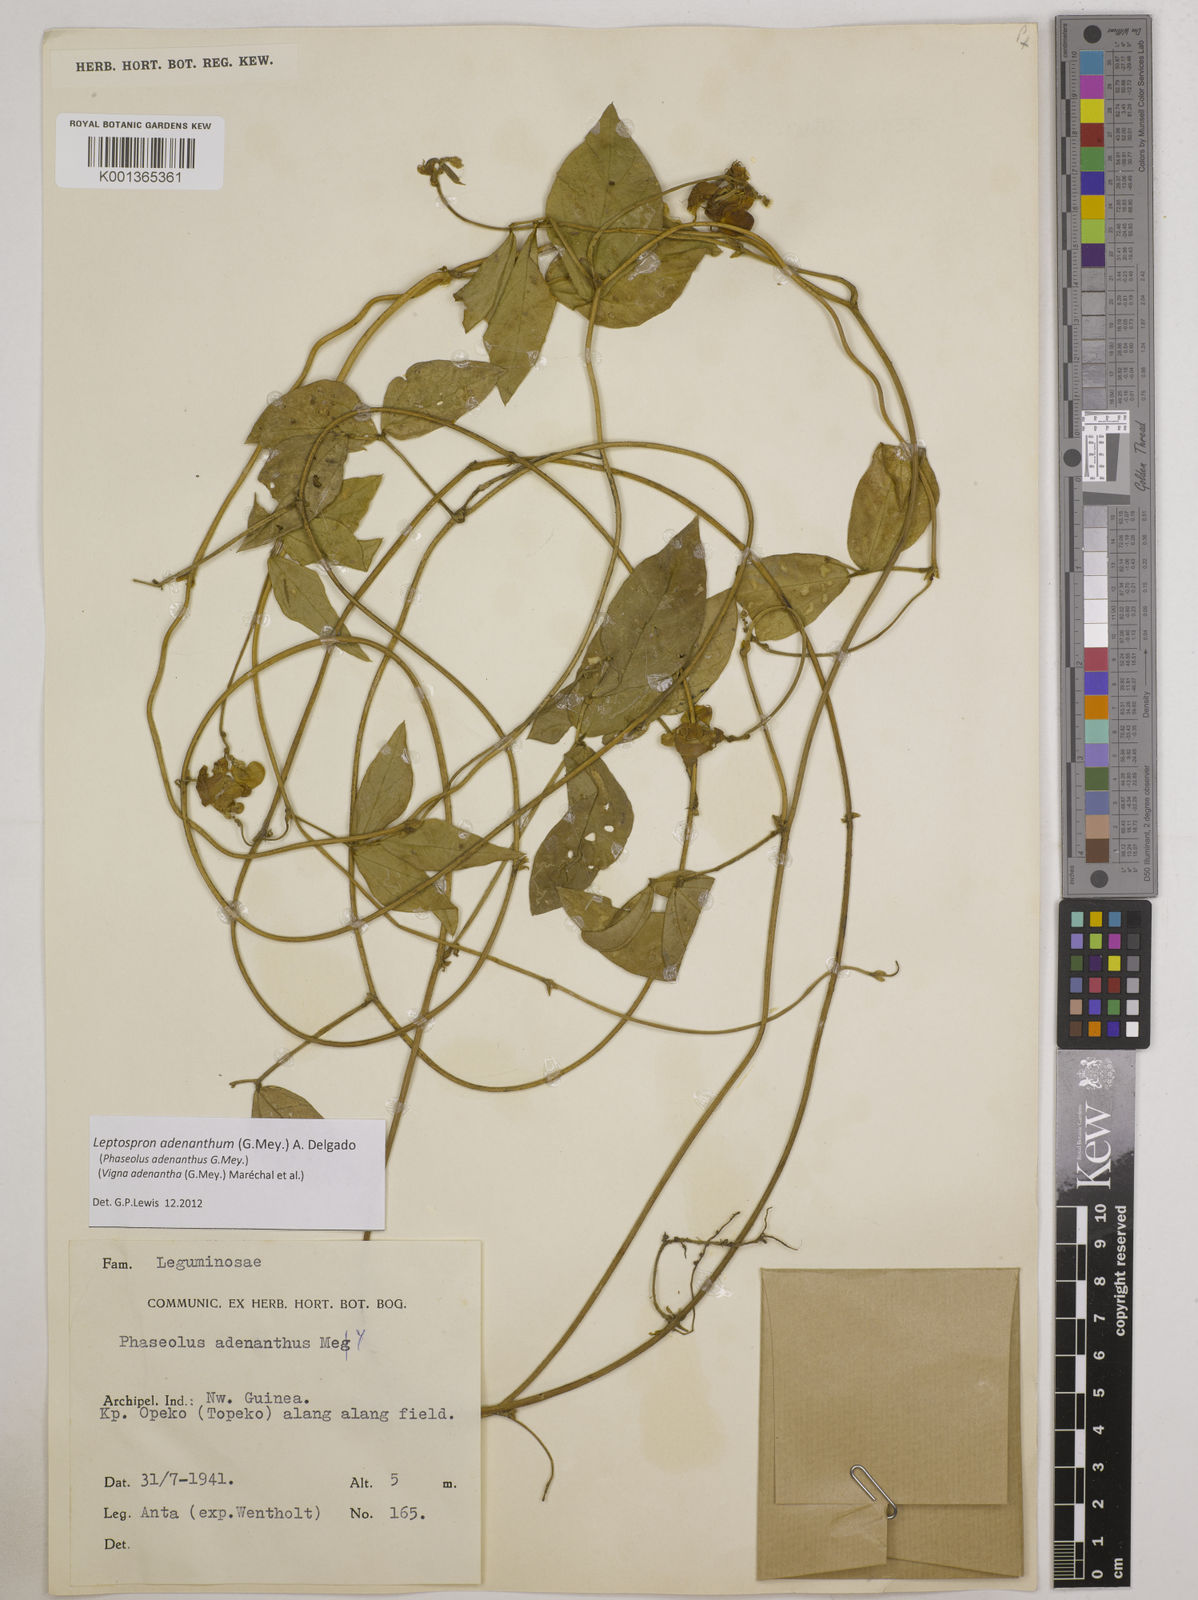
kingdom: Plantae
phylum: Tracheophyta
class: Magnoliopsida
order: Fabales
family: Fabaceae
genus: Leptospron
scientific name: Leptospron adenanthum
